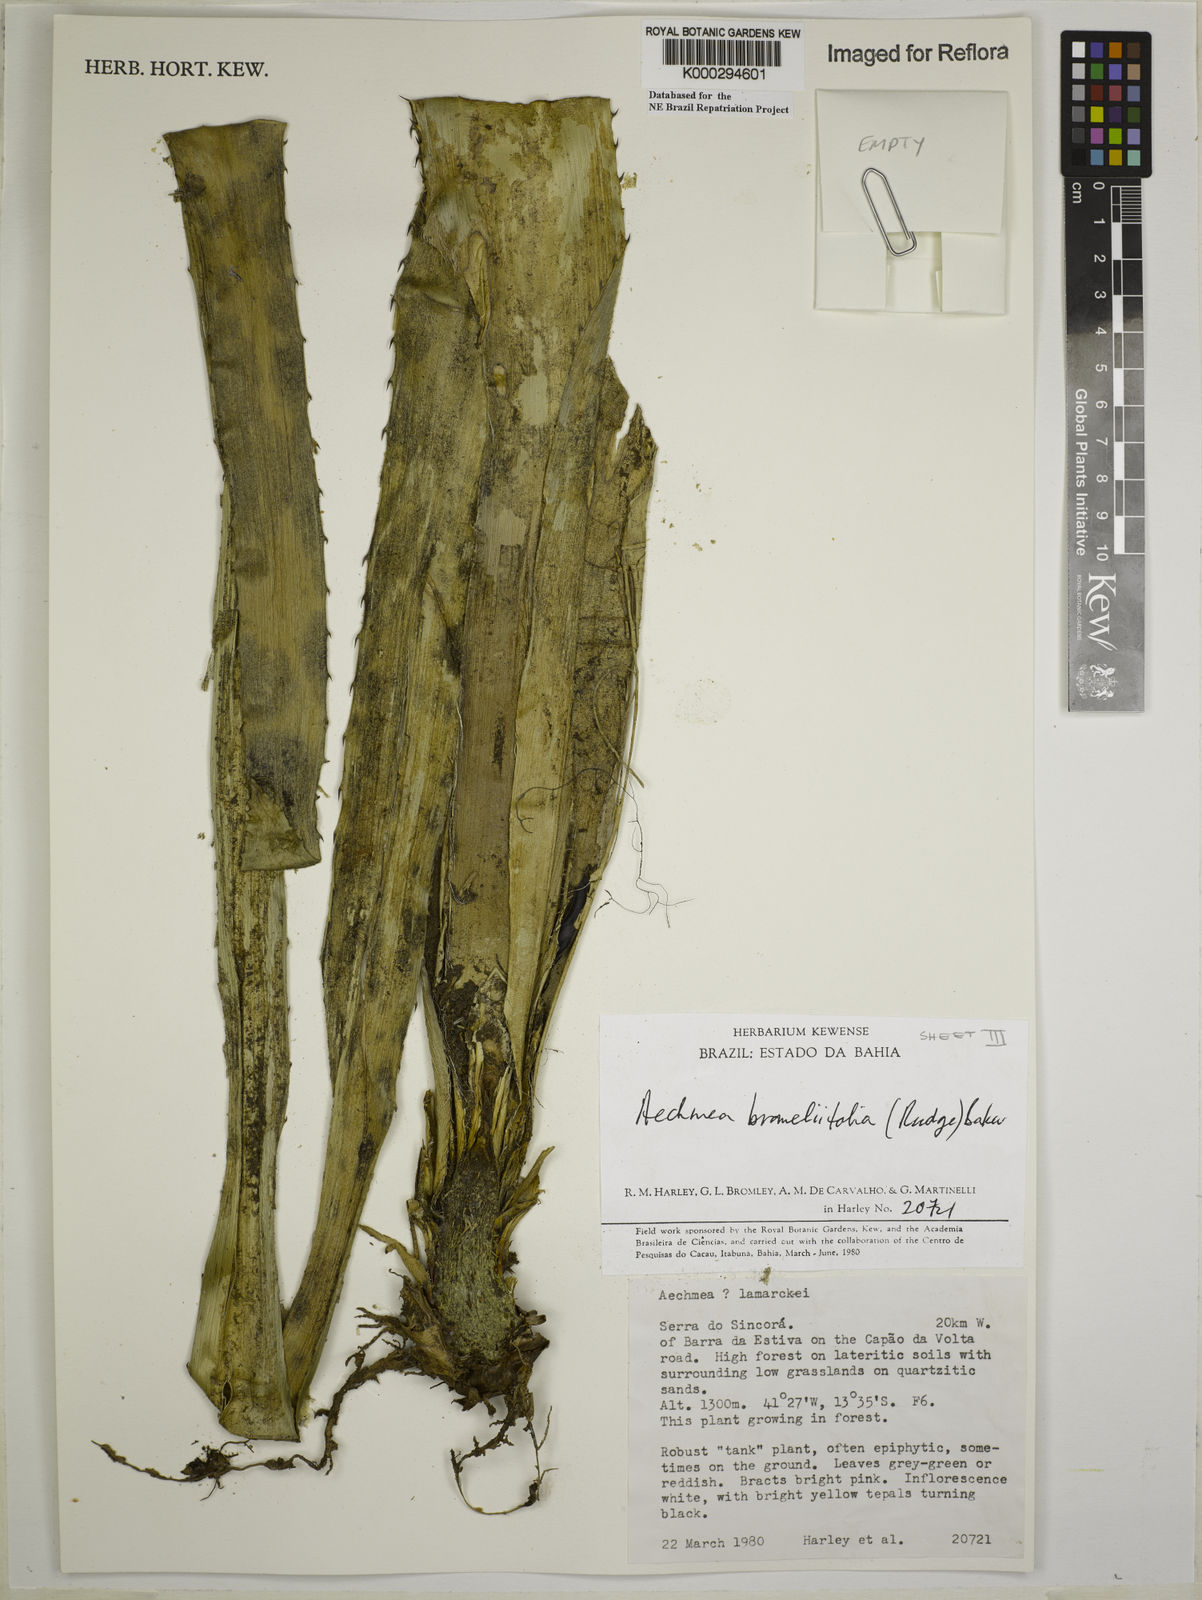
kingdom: Plantae
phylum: Tracheophyta
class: Liliopsida
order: Poales
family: Bromeliaceae
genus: Aechmea
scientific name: Aechmea
